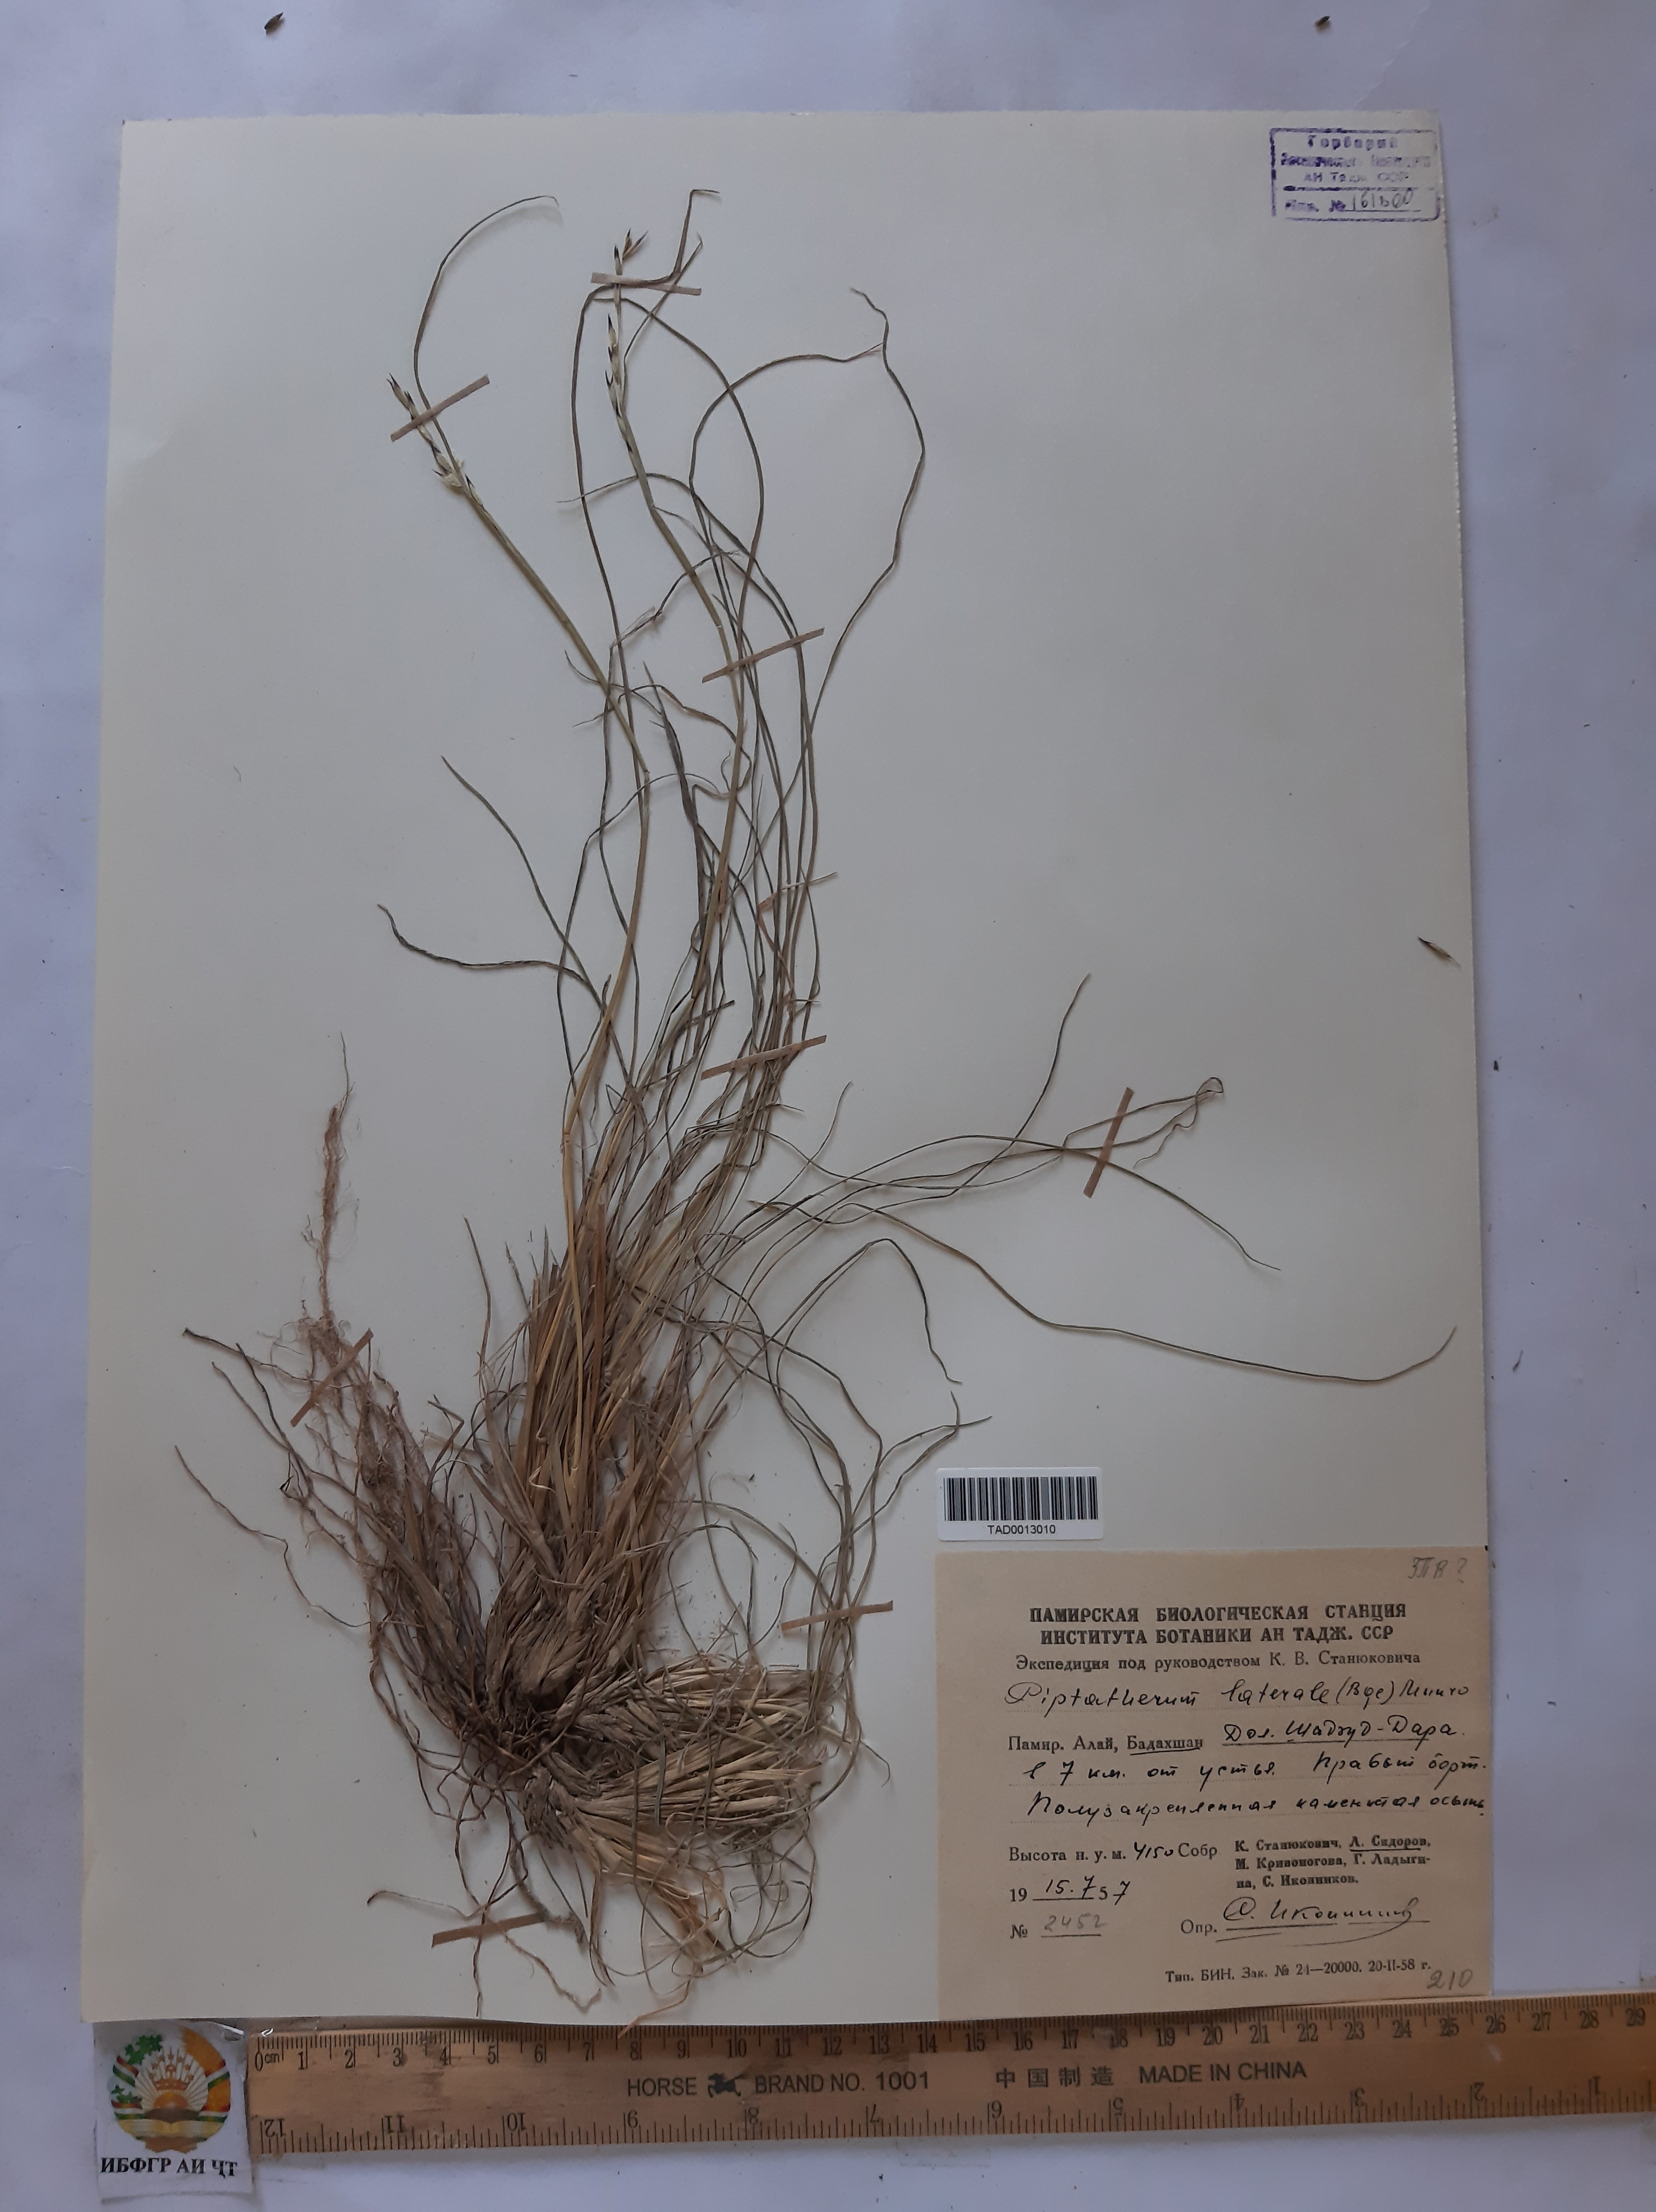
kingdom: Plantae
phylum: Tracheophyta
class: Liliopsida
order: Poales
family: Poaceae
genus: Piptatherum
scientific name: Piptatherum laterale
